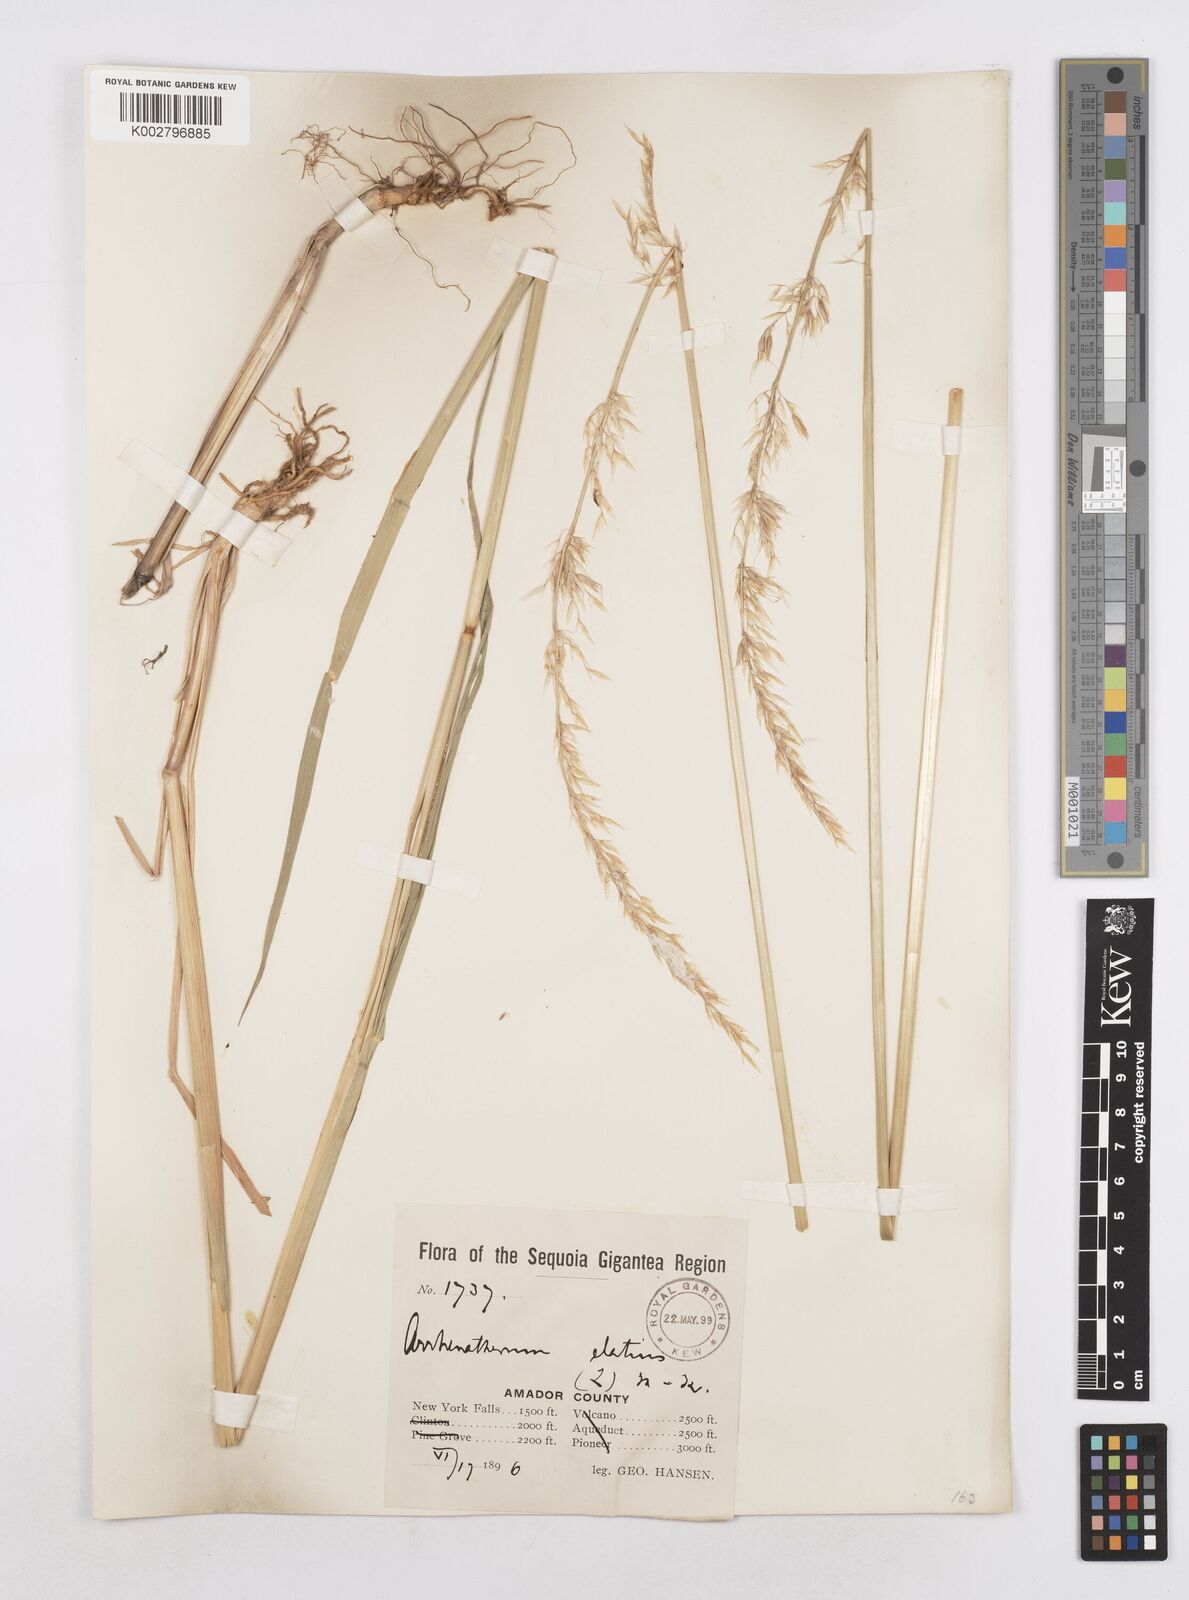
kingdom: Plantae
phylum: Tracheophyta
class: Liliopsida
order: Poales
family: Poaceae
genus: Arrhenatherum
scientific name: Arrhenatherum elatius
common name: Tall oatgrass
